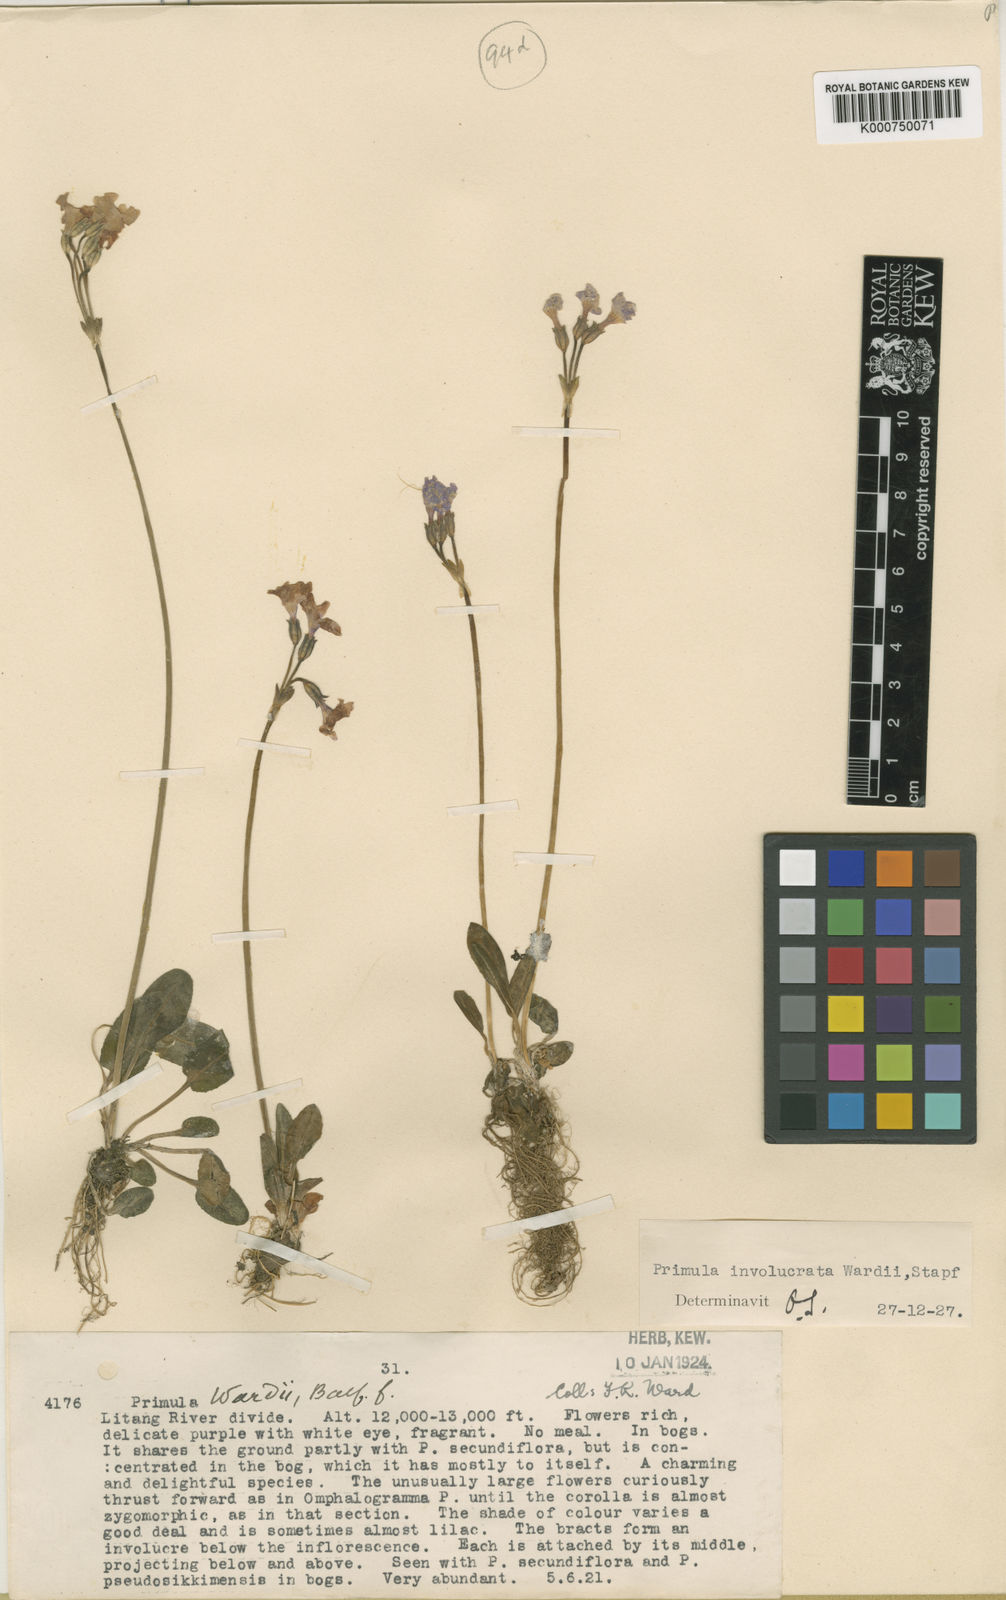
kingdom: Plantae
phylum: Tracheophyta
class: Magnoliopsida
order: Ericales
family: Primulaceae
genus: Primula
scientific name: Primula munroi
